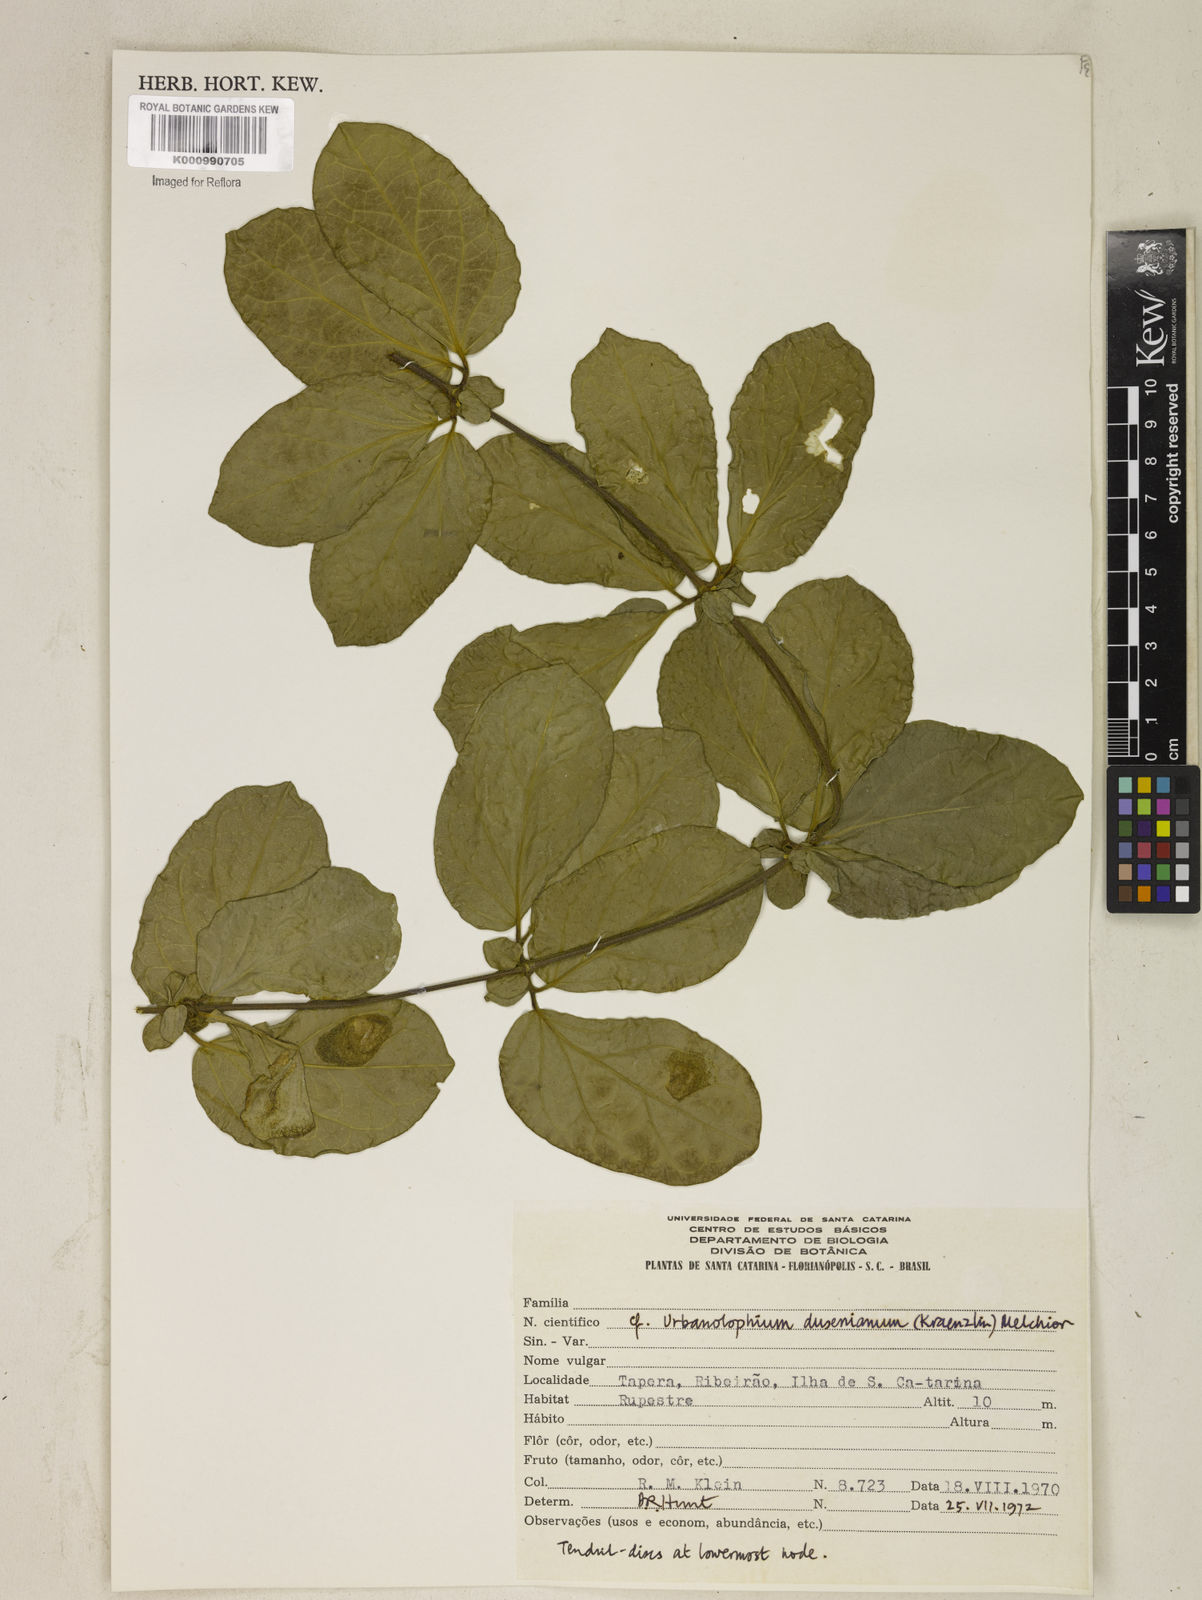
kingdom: Plantae
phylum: Tracheophyta
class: Magnoliopsida
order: Lamiales
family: Bignoniaceae
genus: Amphilophium
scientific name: Amphilophium dusenianum
